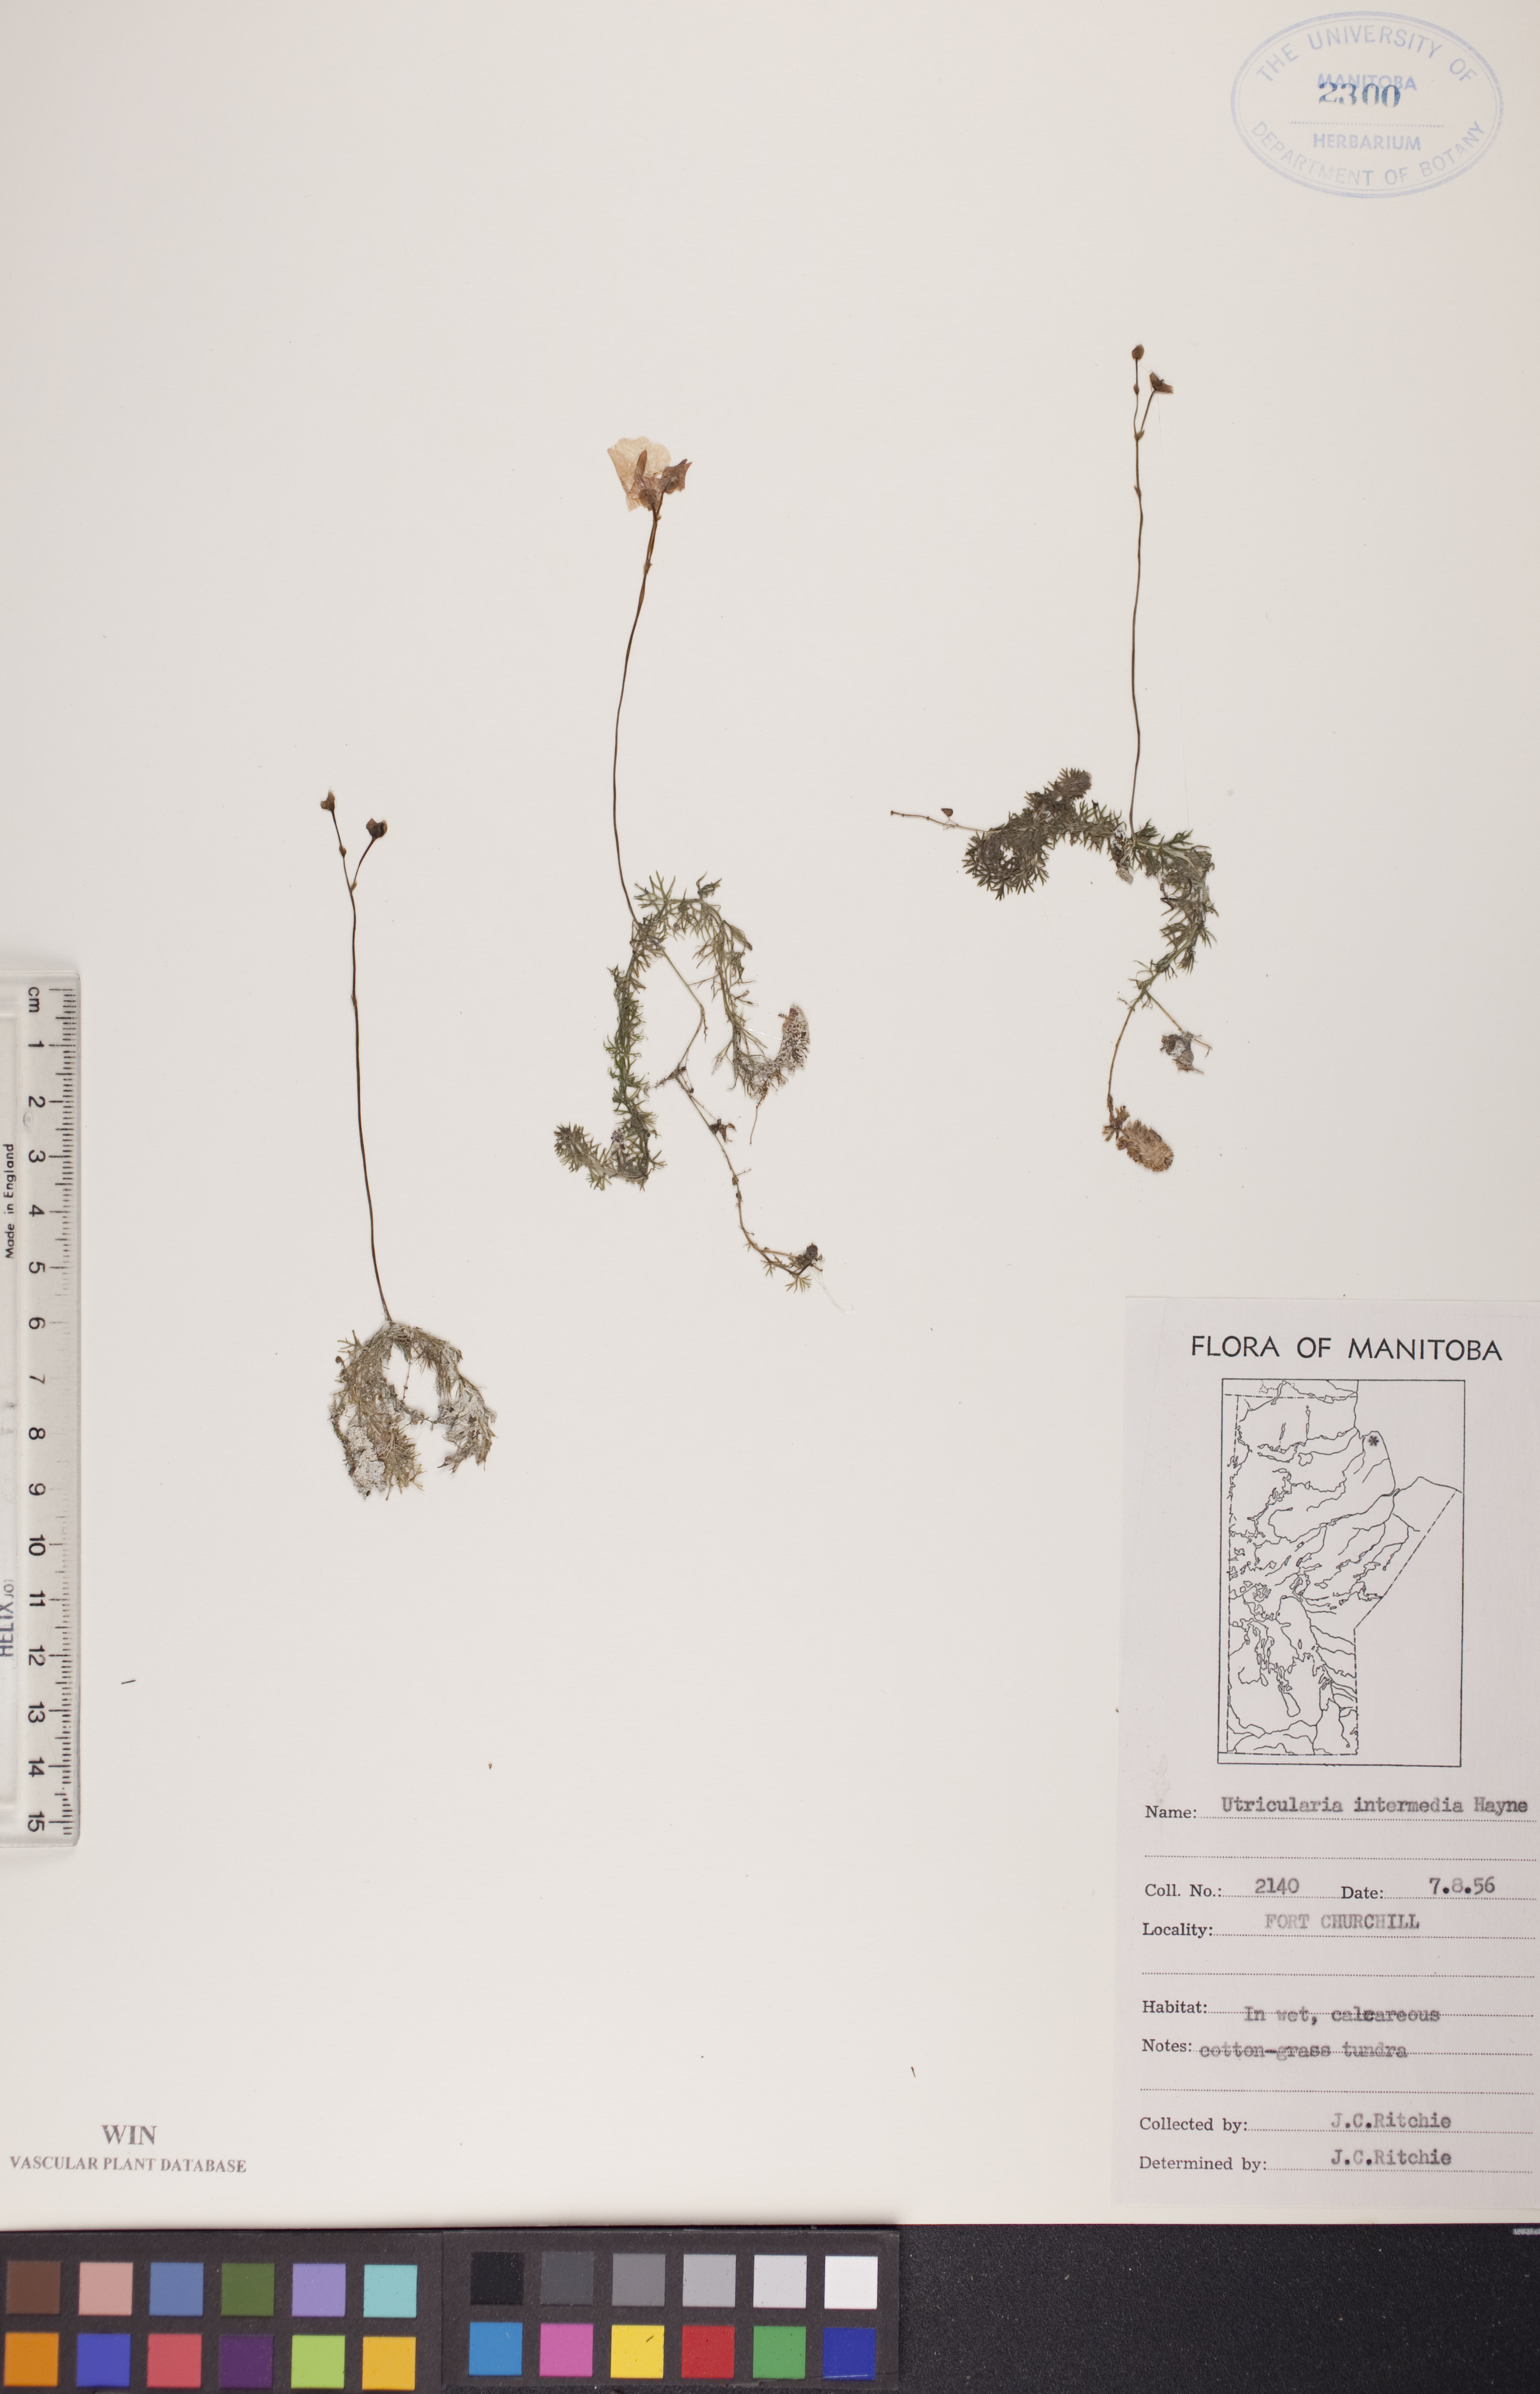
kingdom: Plantae
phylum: Tracheophyta
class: Magnoliopsida
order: Lamiales
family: Lentibulariaceae
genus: Utricularia
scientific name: Utricularia intermedia
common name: Intermediate bladderwort
